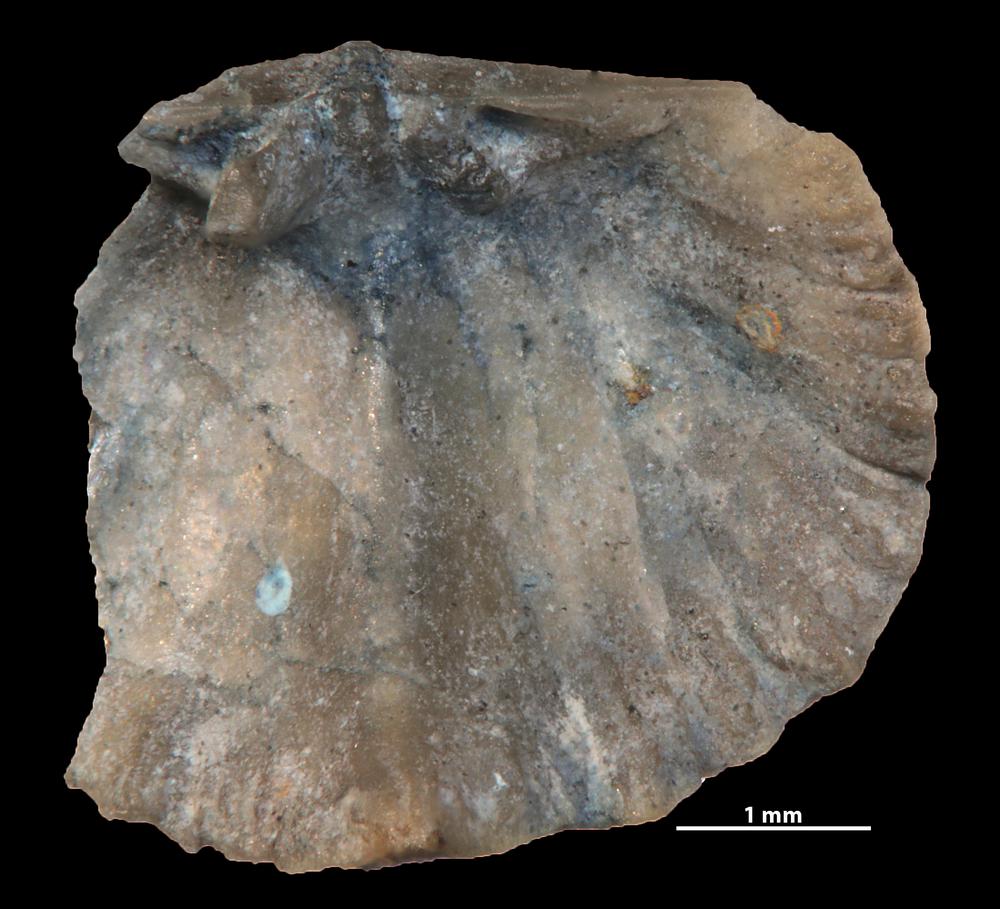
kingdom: Animalia
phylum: Brachiopoda
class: Rhynchonellata
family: Dalmanellidae
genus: Ravozetina
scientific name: Ravozetina
